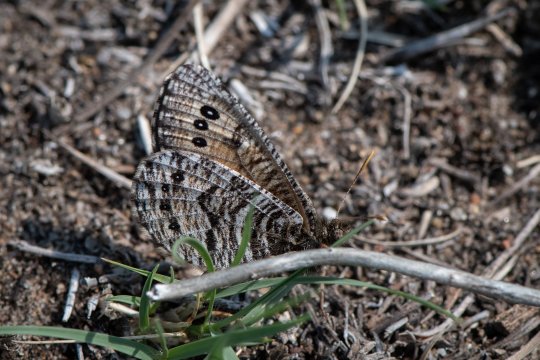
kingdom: Animalia
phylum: Arthropoda
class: Insecta
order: Lepidoptera
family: Nymphalidae
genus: Oeneis
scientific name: Oeneis alberta
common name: Alberta Arctic
